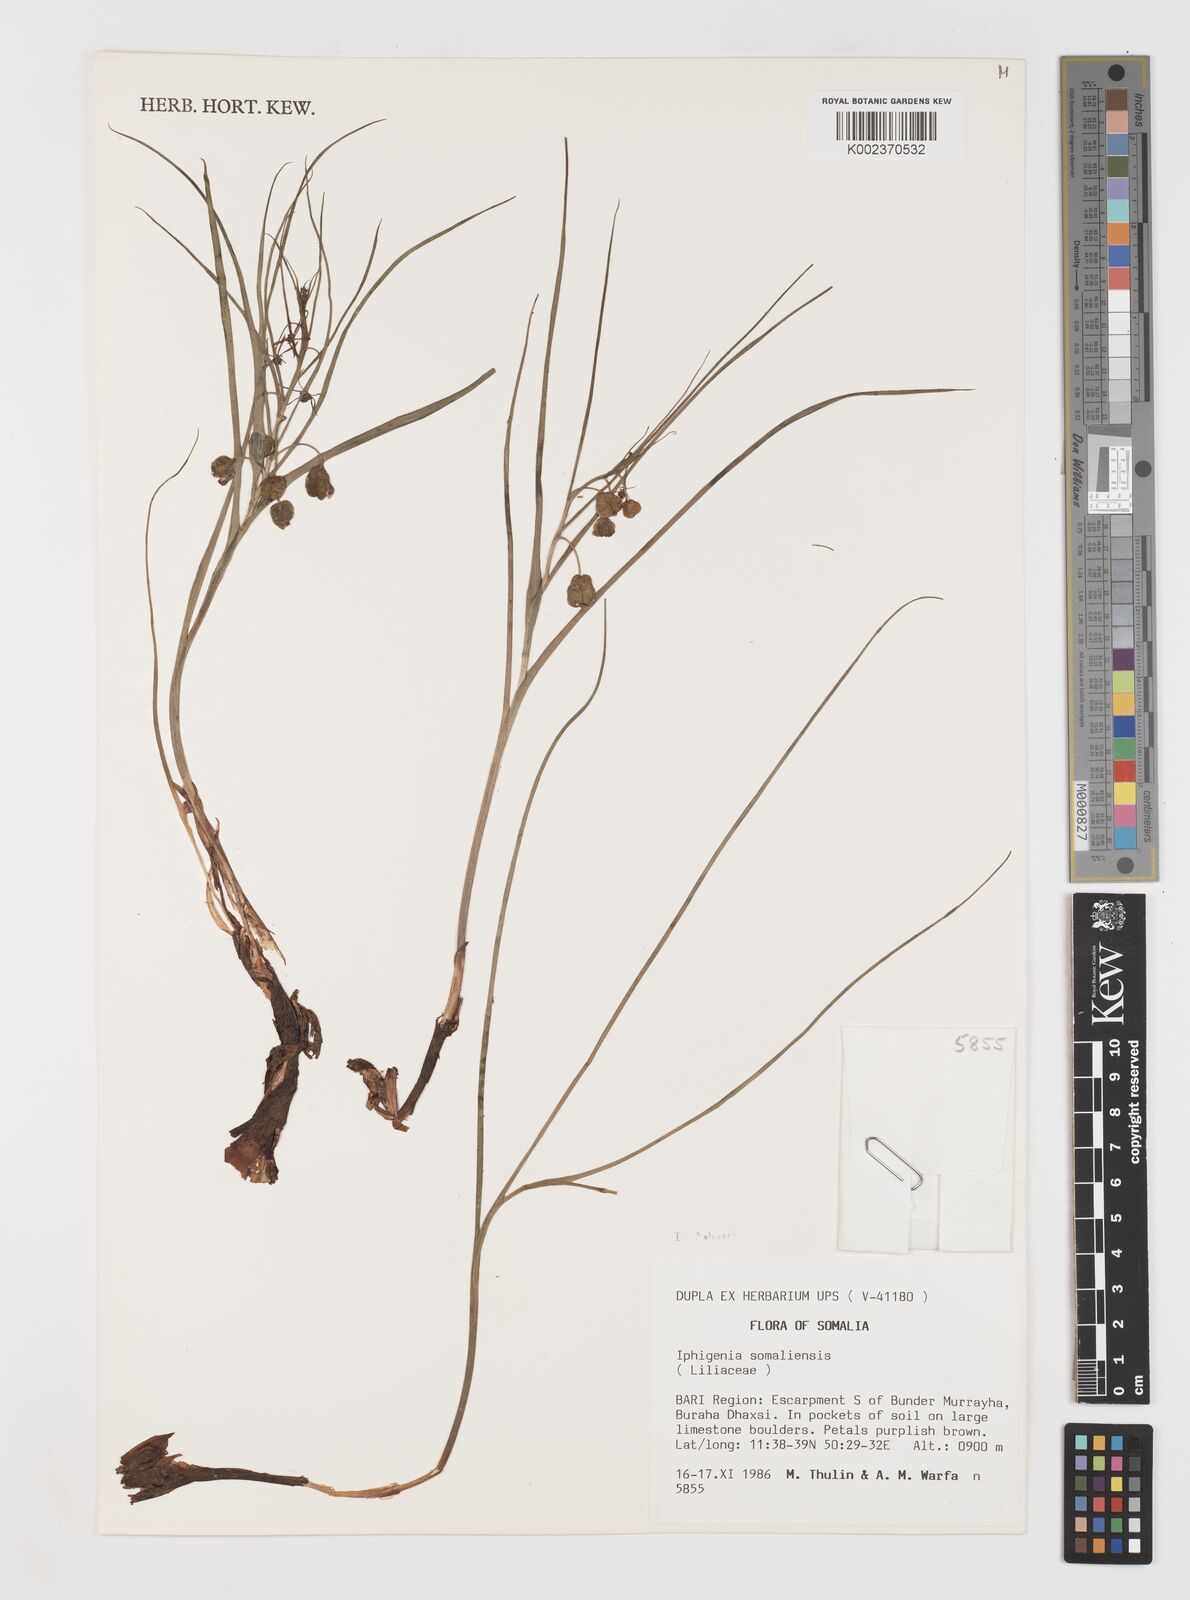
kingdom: Plantae
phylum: Tracheophyta
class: Liliopsida
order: Liliales
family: Colchicaceae
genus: Iphigenia
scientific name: Iphigenia oliveri
